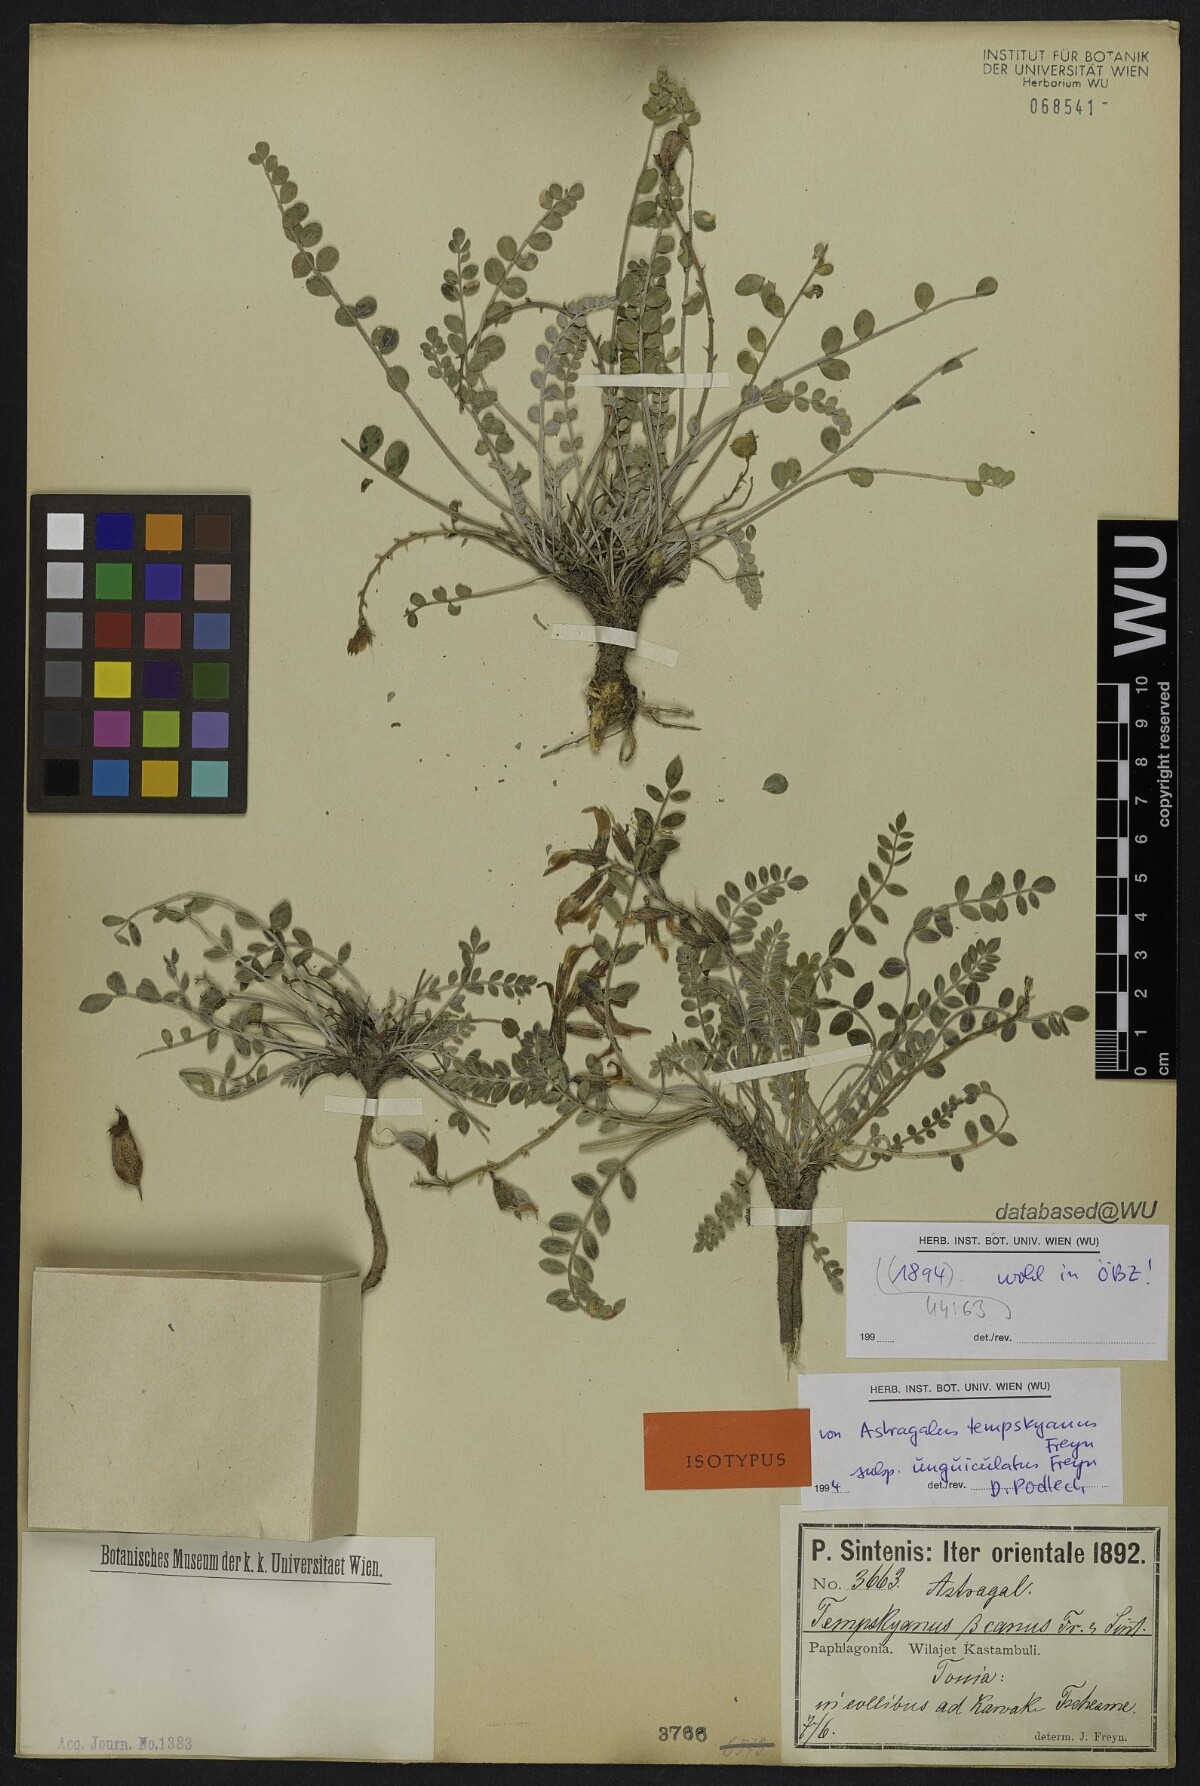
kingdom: Plantae
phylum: Tracheophyta
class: Magnoliopsida
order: Fabales
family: Fabaceae
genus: Astragalus
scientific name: Astragalus spruneri
